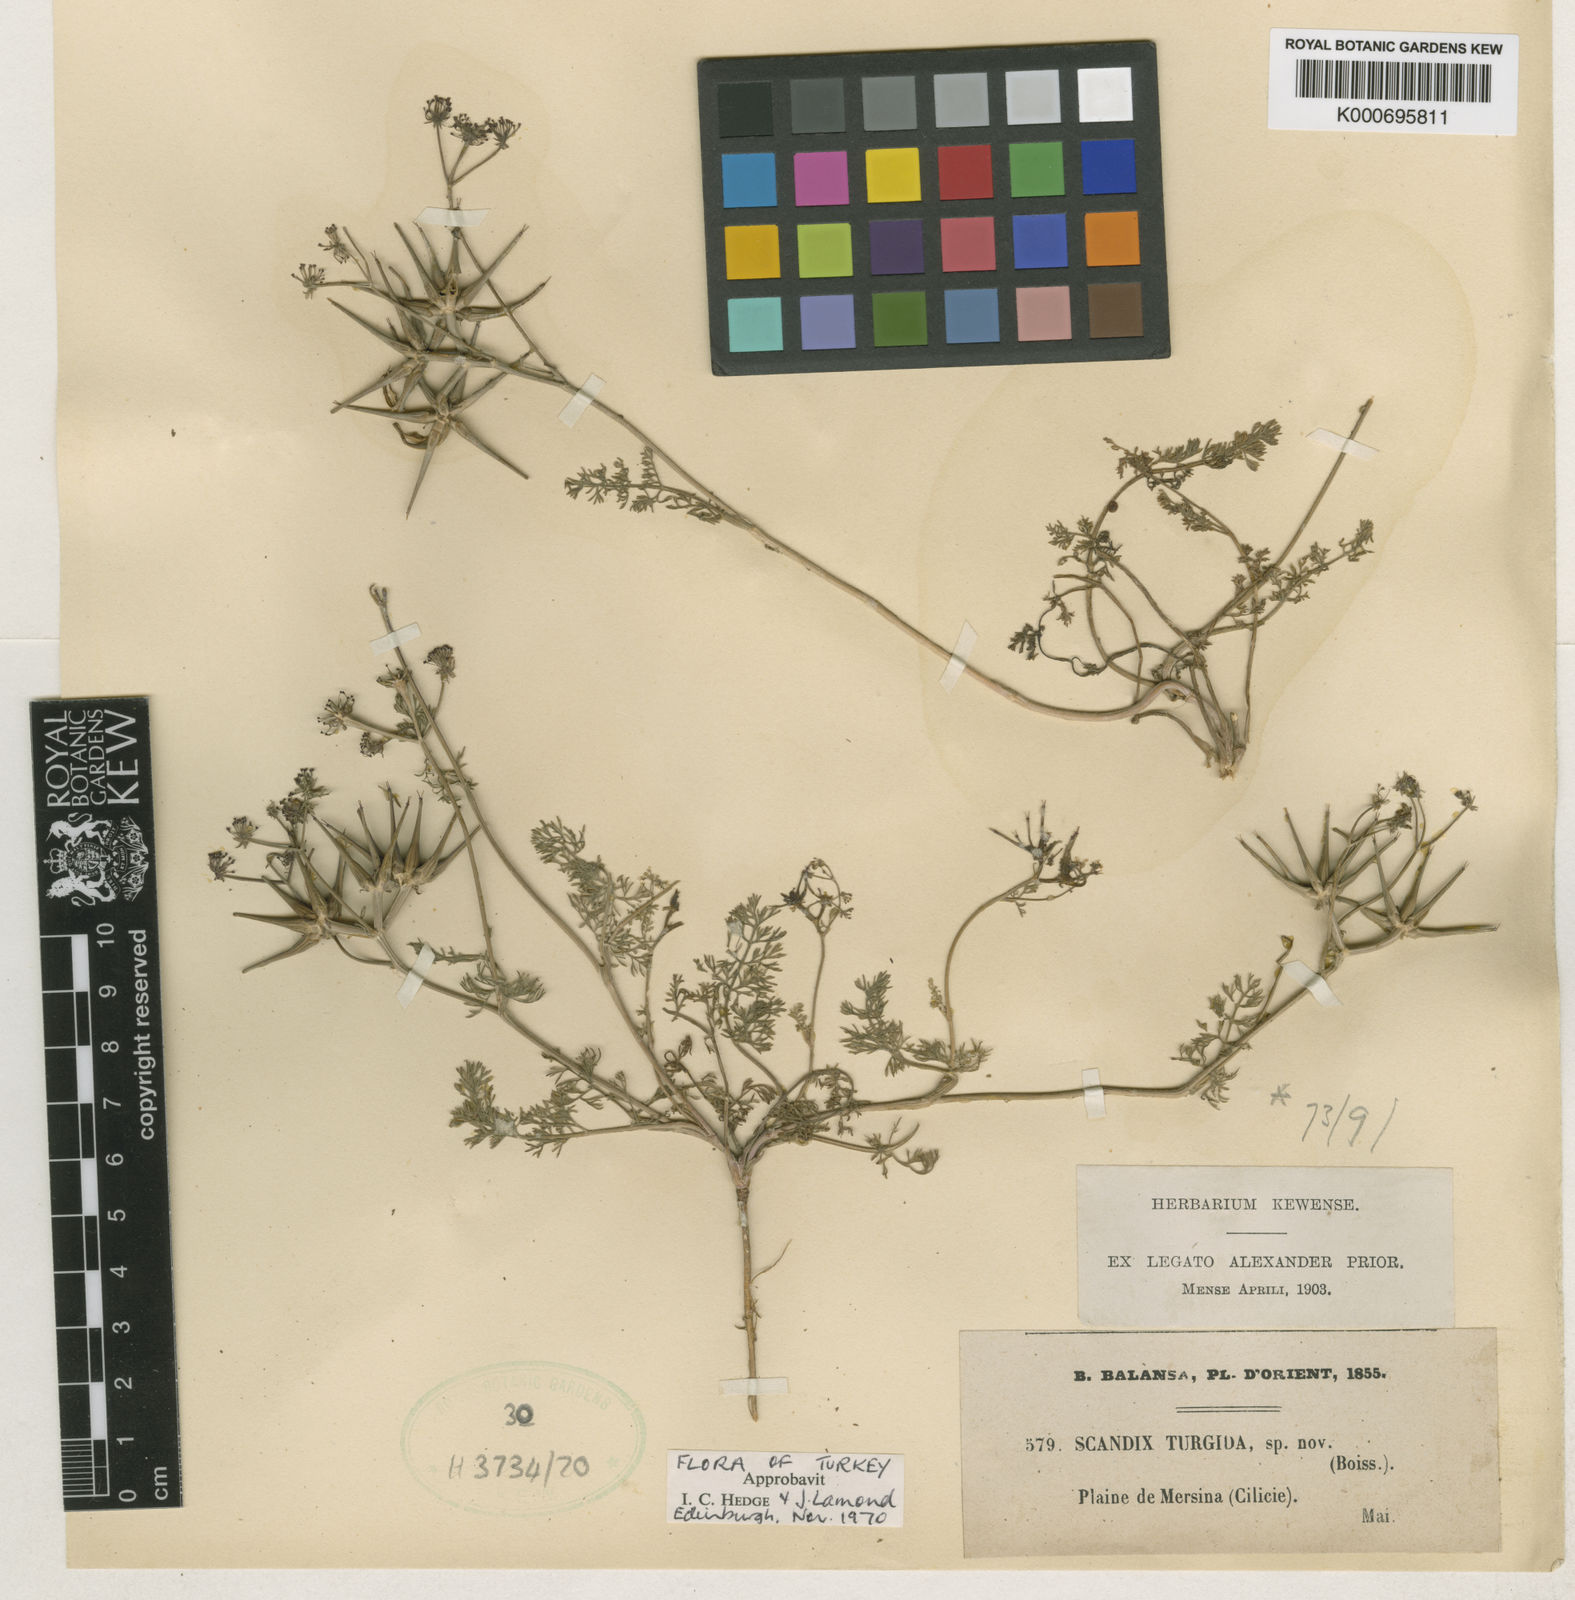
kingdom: Plantae
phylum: Tracheophyta
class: Magnoliopsida
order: Apiales
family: Apiaceae
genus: Scandix
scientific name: Scandix turgida
